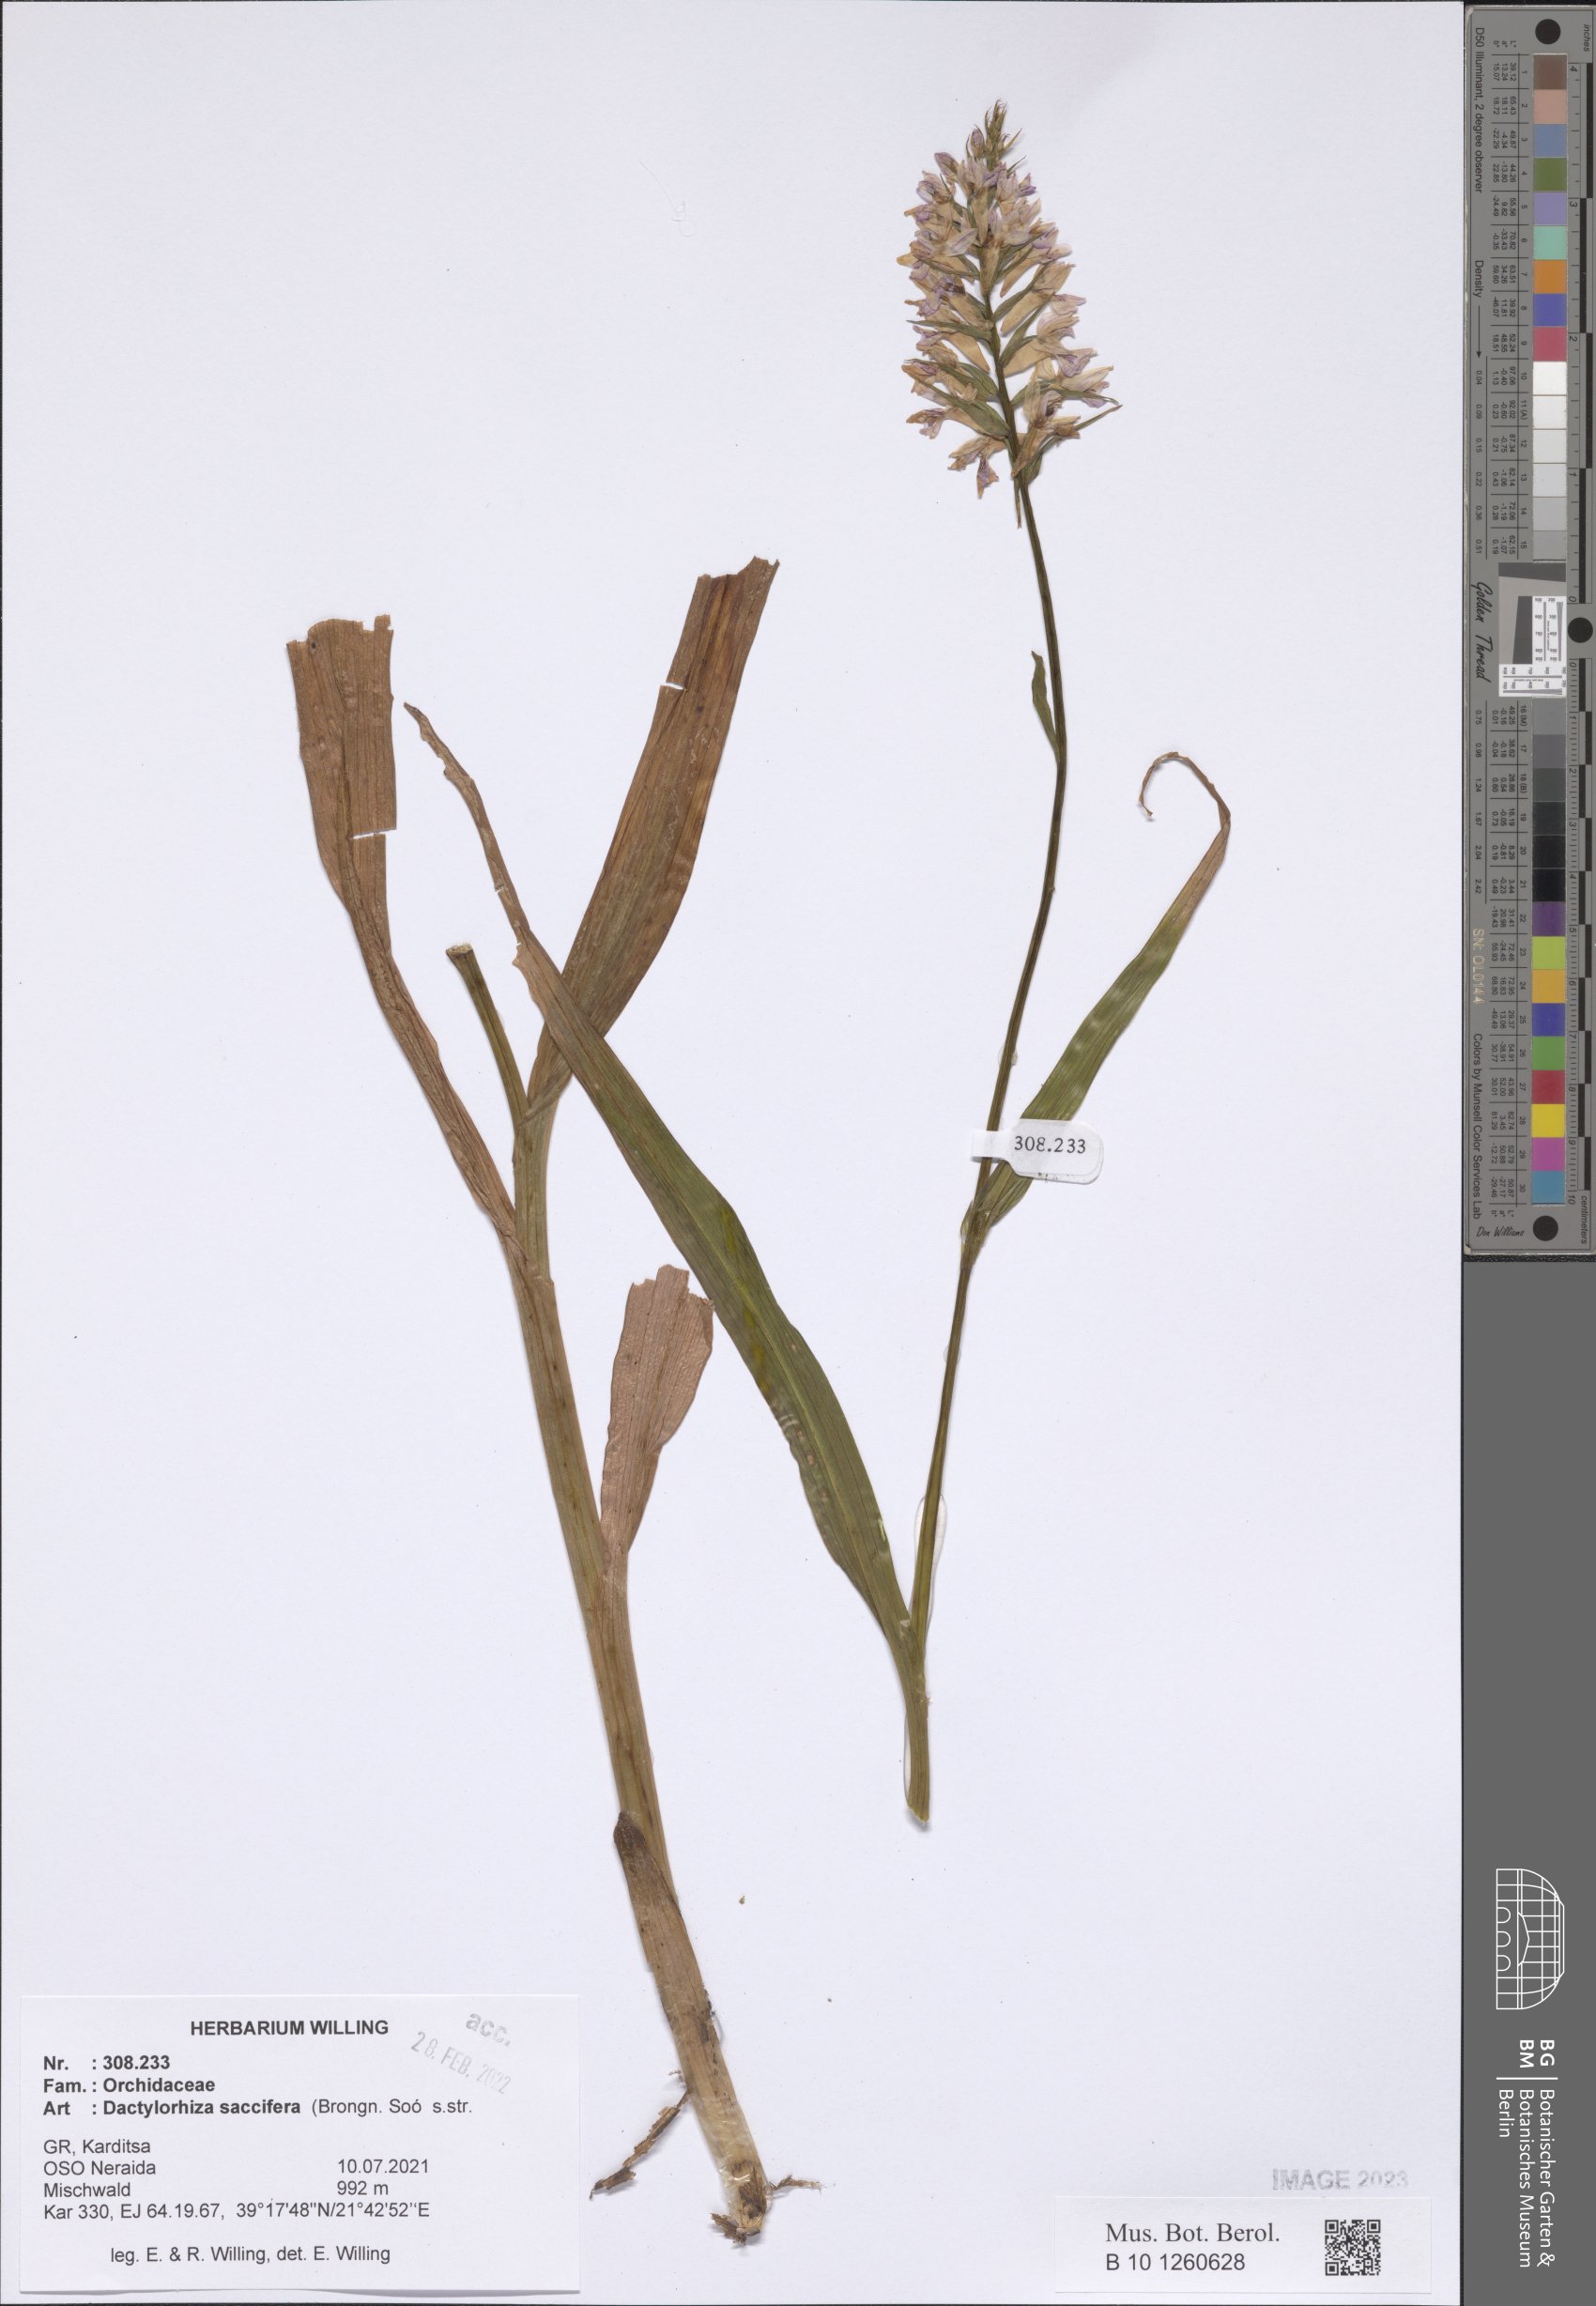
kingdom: Plantae
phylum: Tracheophyta
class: Liliopsida
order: Asparagales
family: Orchidaceae
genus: Dactylorhiza
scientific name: Dactylorhiza maculata
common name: Heath spotted-orchid
